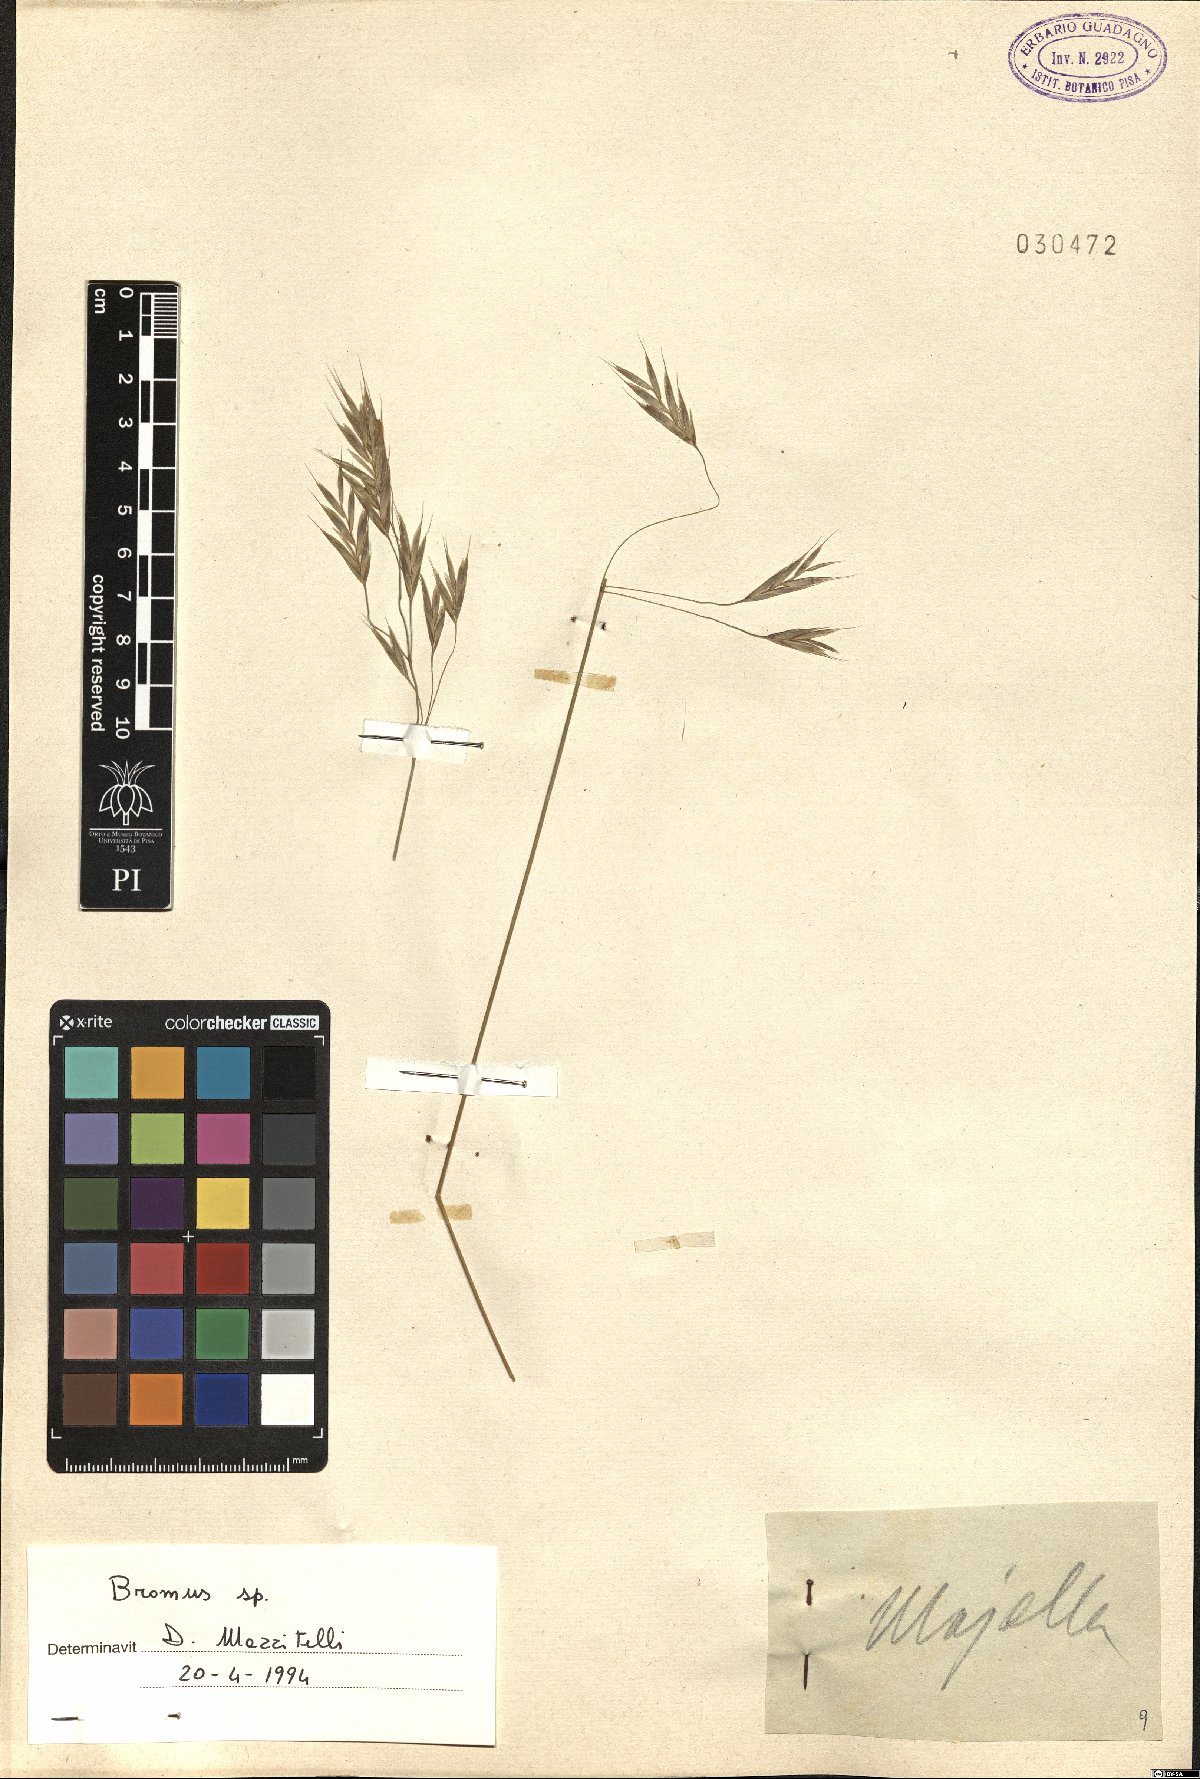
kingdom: Plantae
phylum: Tracheophyta
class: Liliopsida
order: Poales
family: Poaceae
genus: Bromus
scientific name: Bromus
